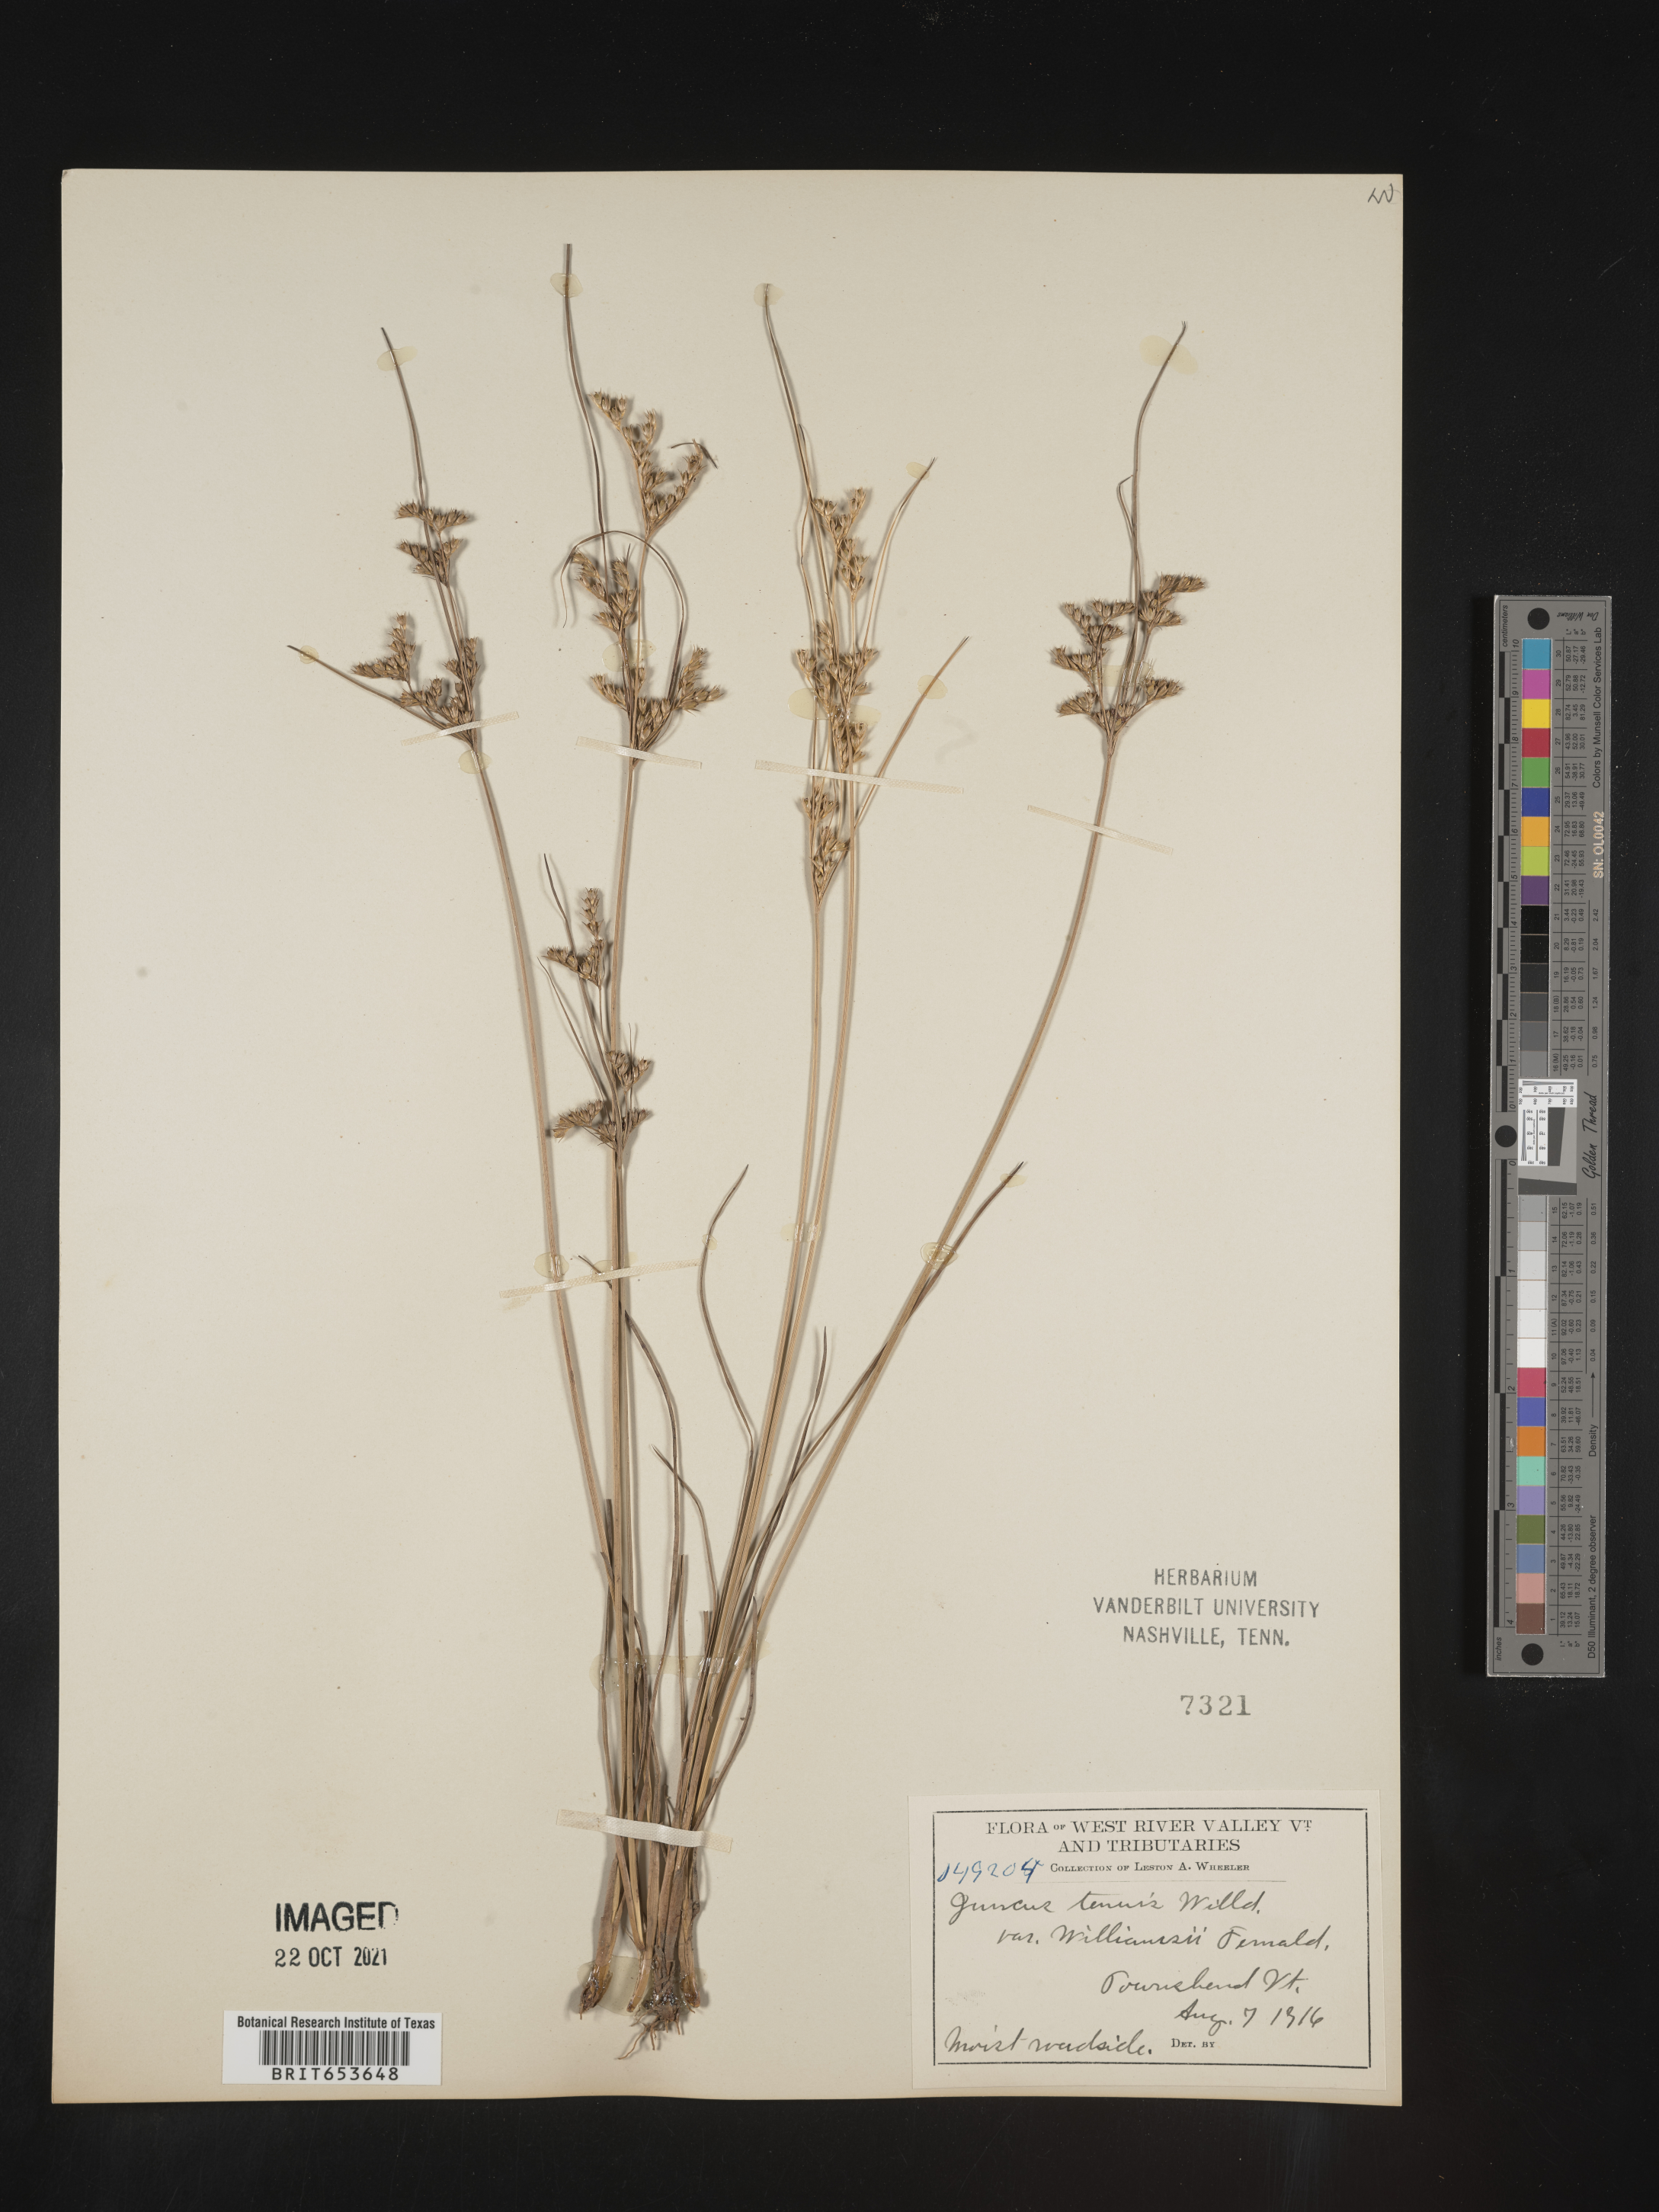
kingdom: Plantae
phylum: Tracheophyta
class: Liliopsida
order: Poales
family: Juncaceae
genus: Juncus
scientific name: Juncus tenuis
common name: Slender rush
